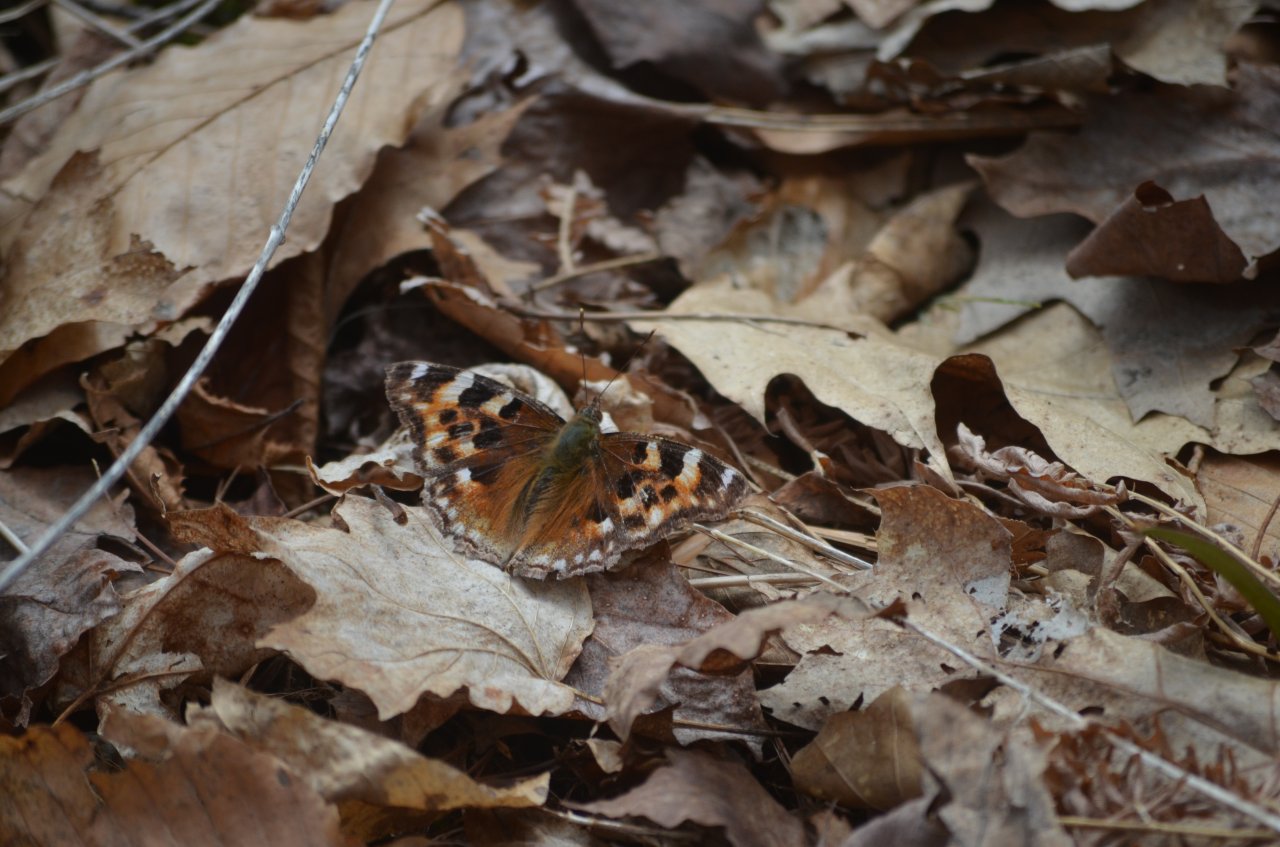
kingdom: Animalia
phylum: Arthropoda
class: Insecta
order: Lepidoptera
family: Nymphalidae
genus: Polygonia
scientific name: Polygonia vaualbum
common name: Compton Tortoiseshell
